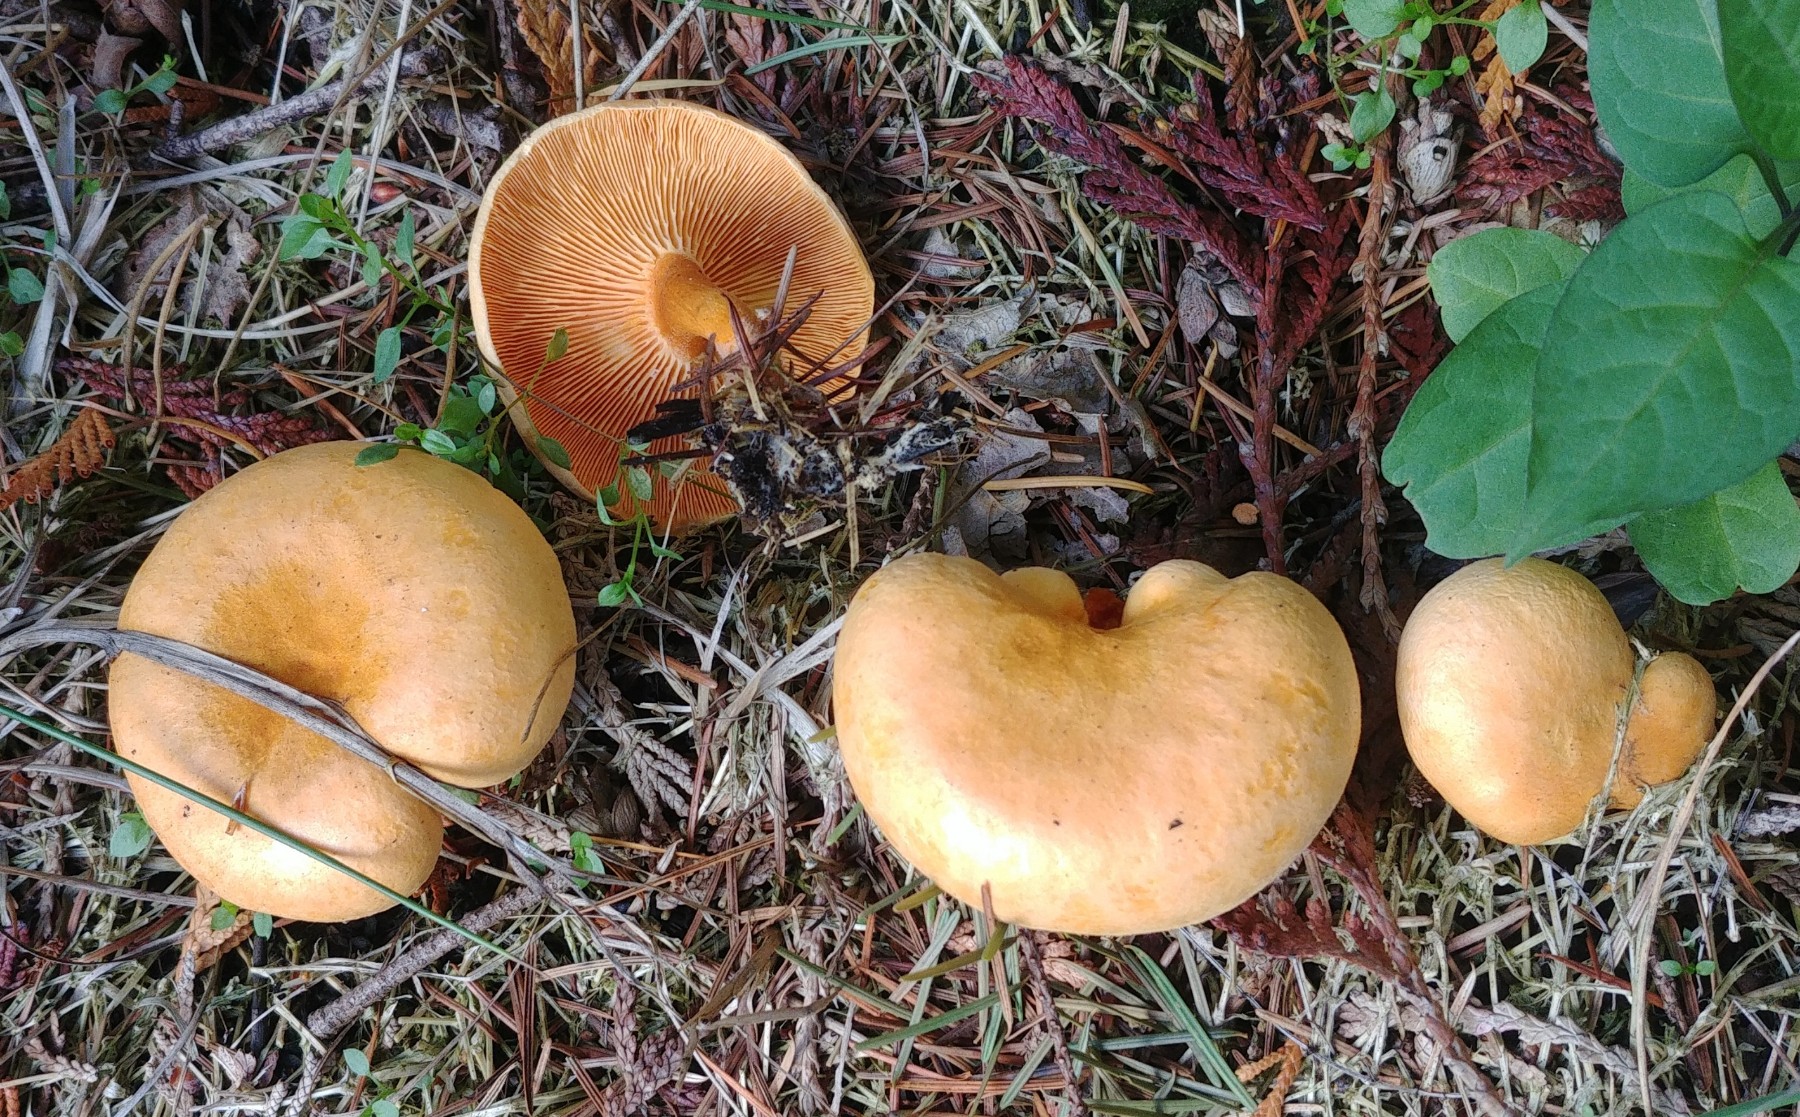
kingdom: Fungi
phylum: Basidiomycota
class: Agaricomycetes
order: Boletales
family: Hygrophoropsidaceae
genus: Hygrophoropsis
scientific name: Hygrophoropsis aurantiaca
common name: almindelig orangekantarel
